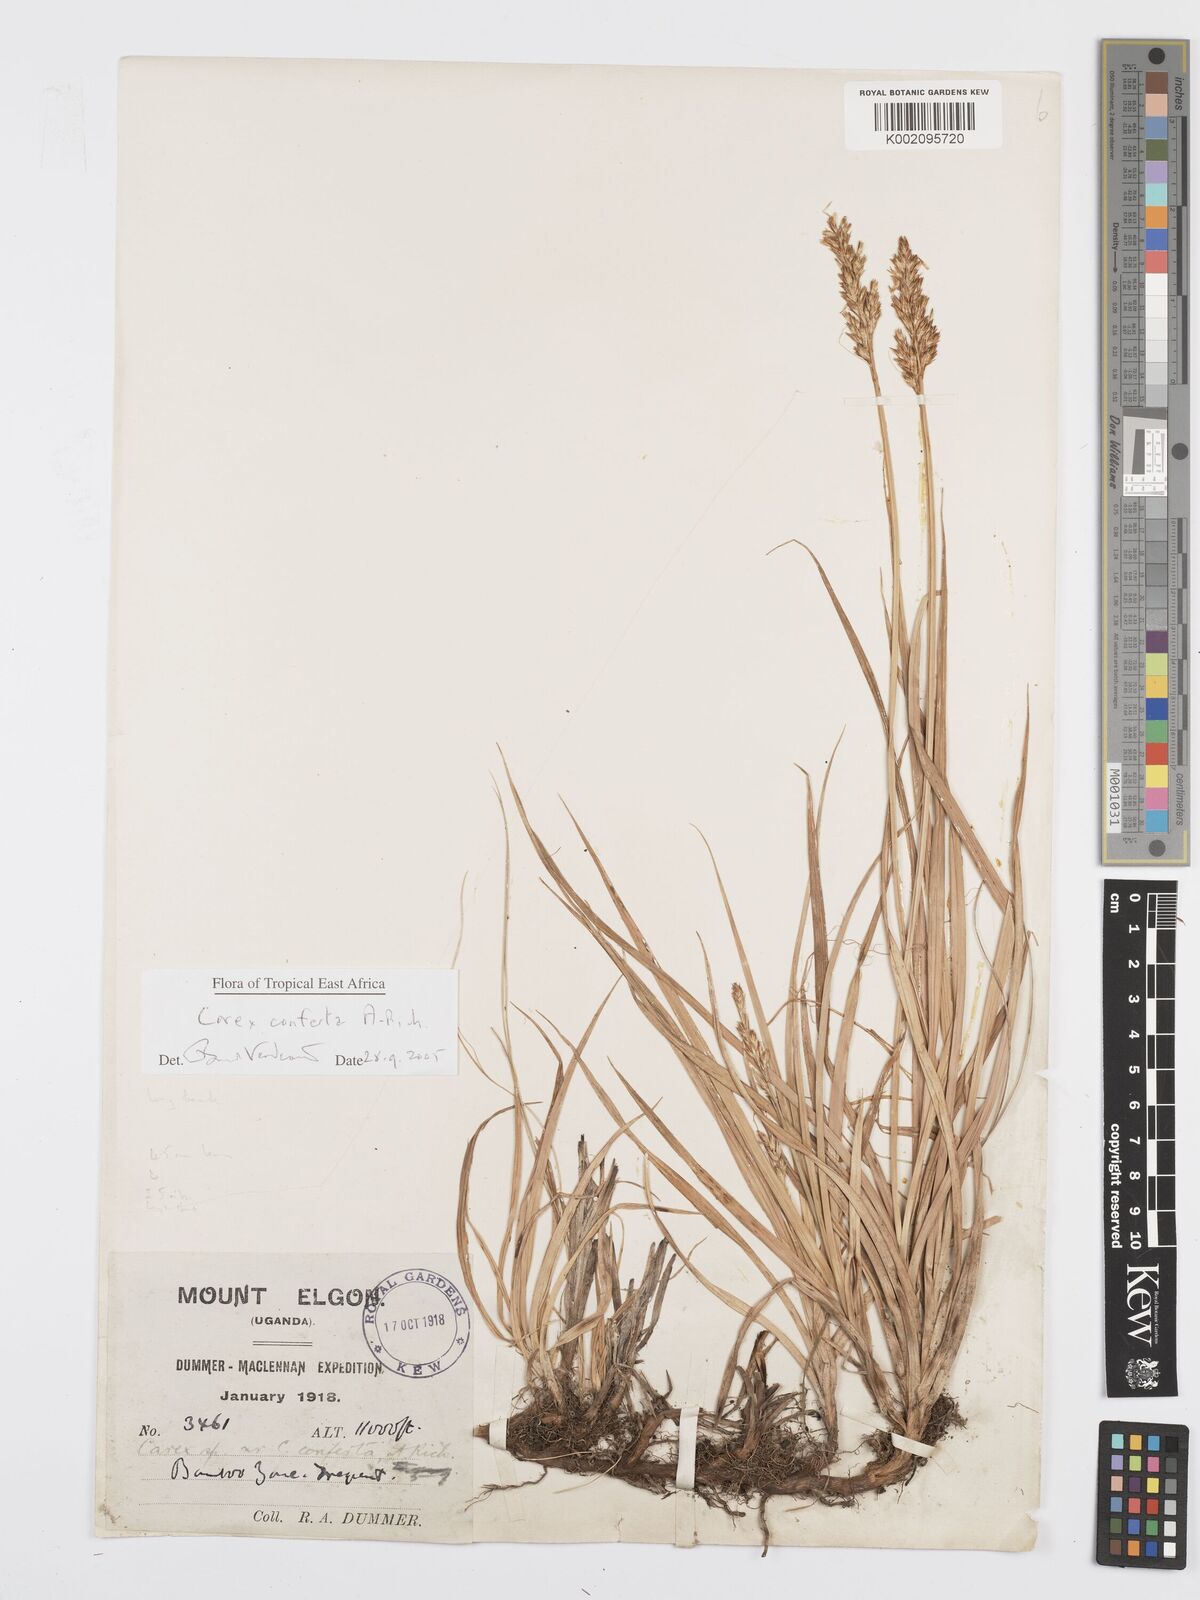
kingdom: Plantae
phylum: Tracheophyta
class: Liliopsida
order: Poales
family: Cyperaceae
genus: Carex
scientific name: Carex conferta
